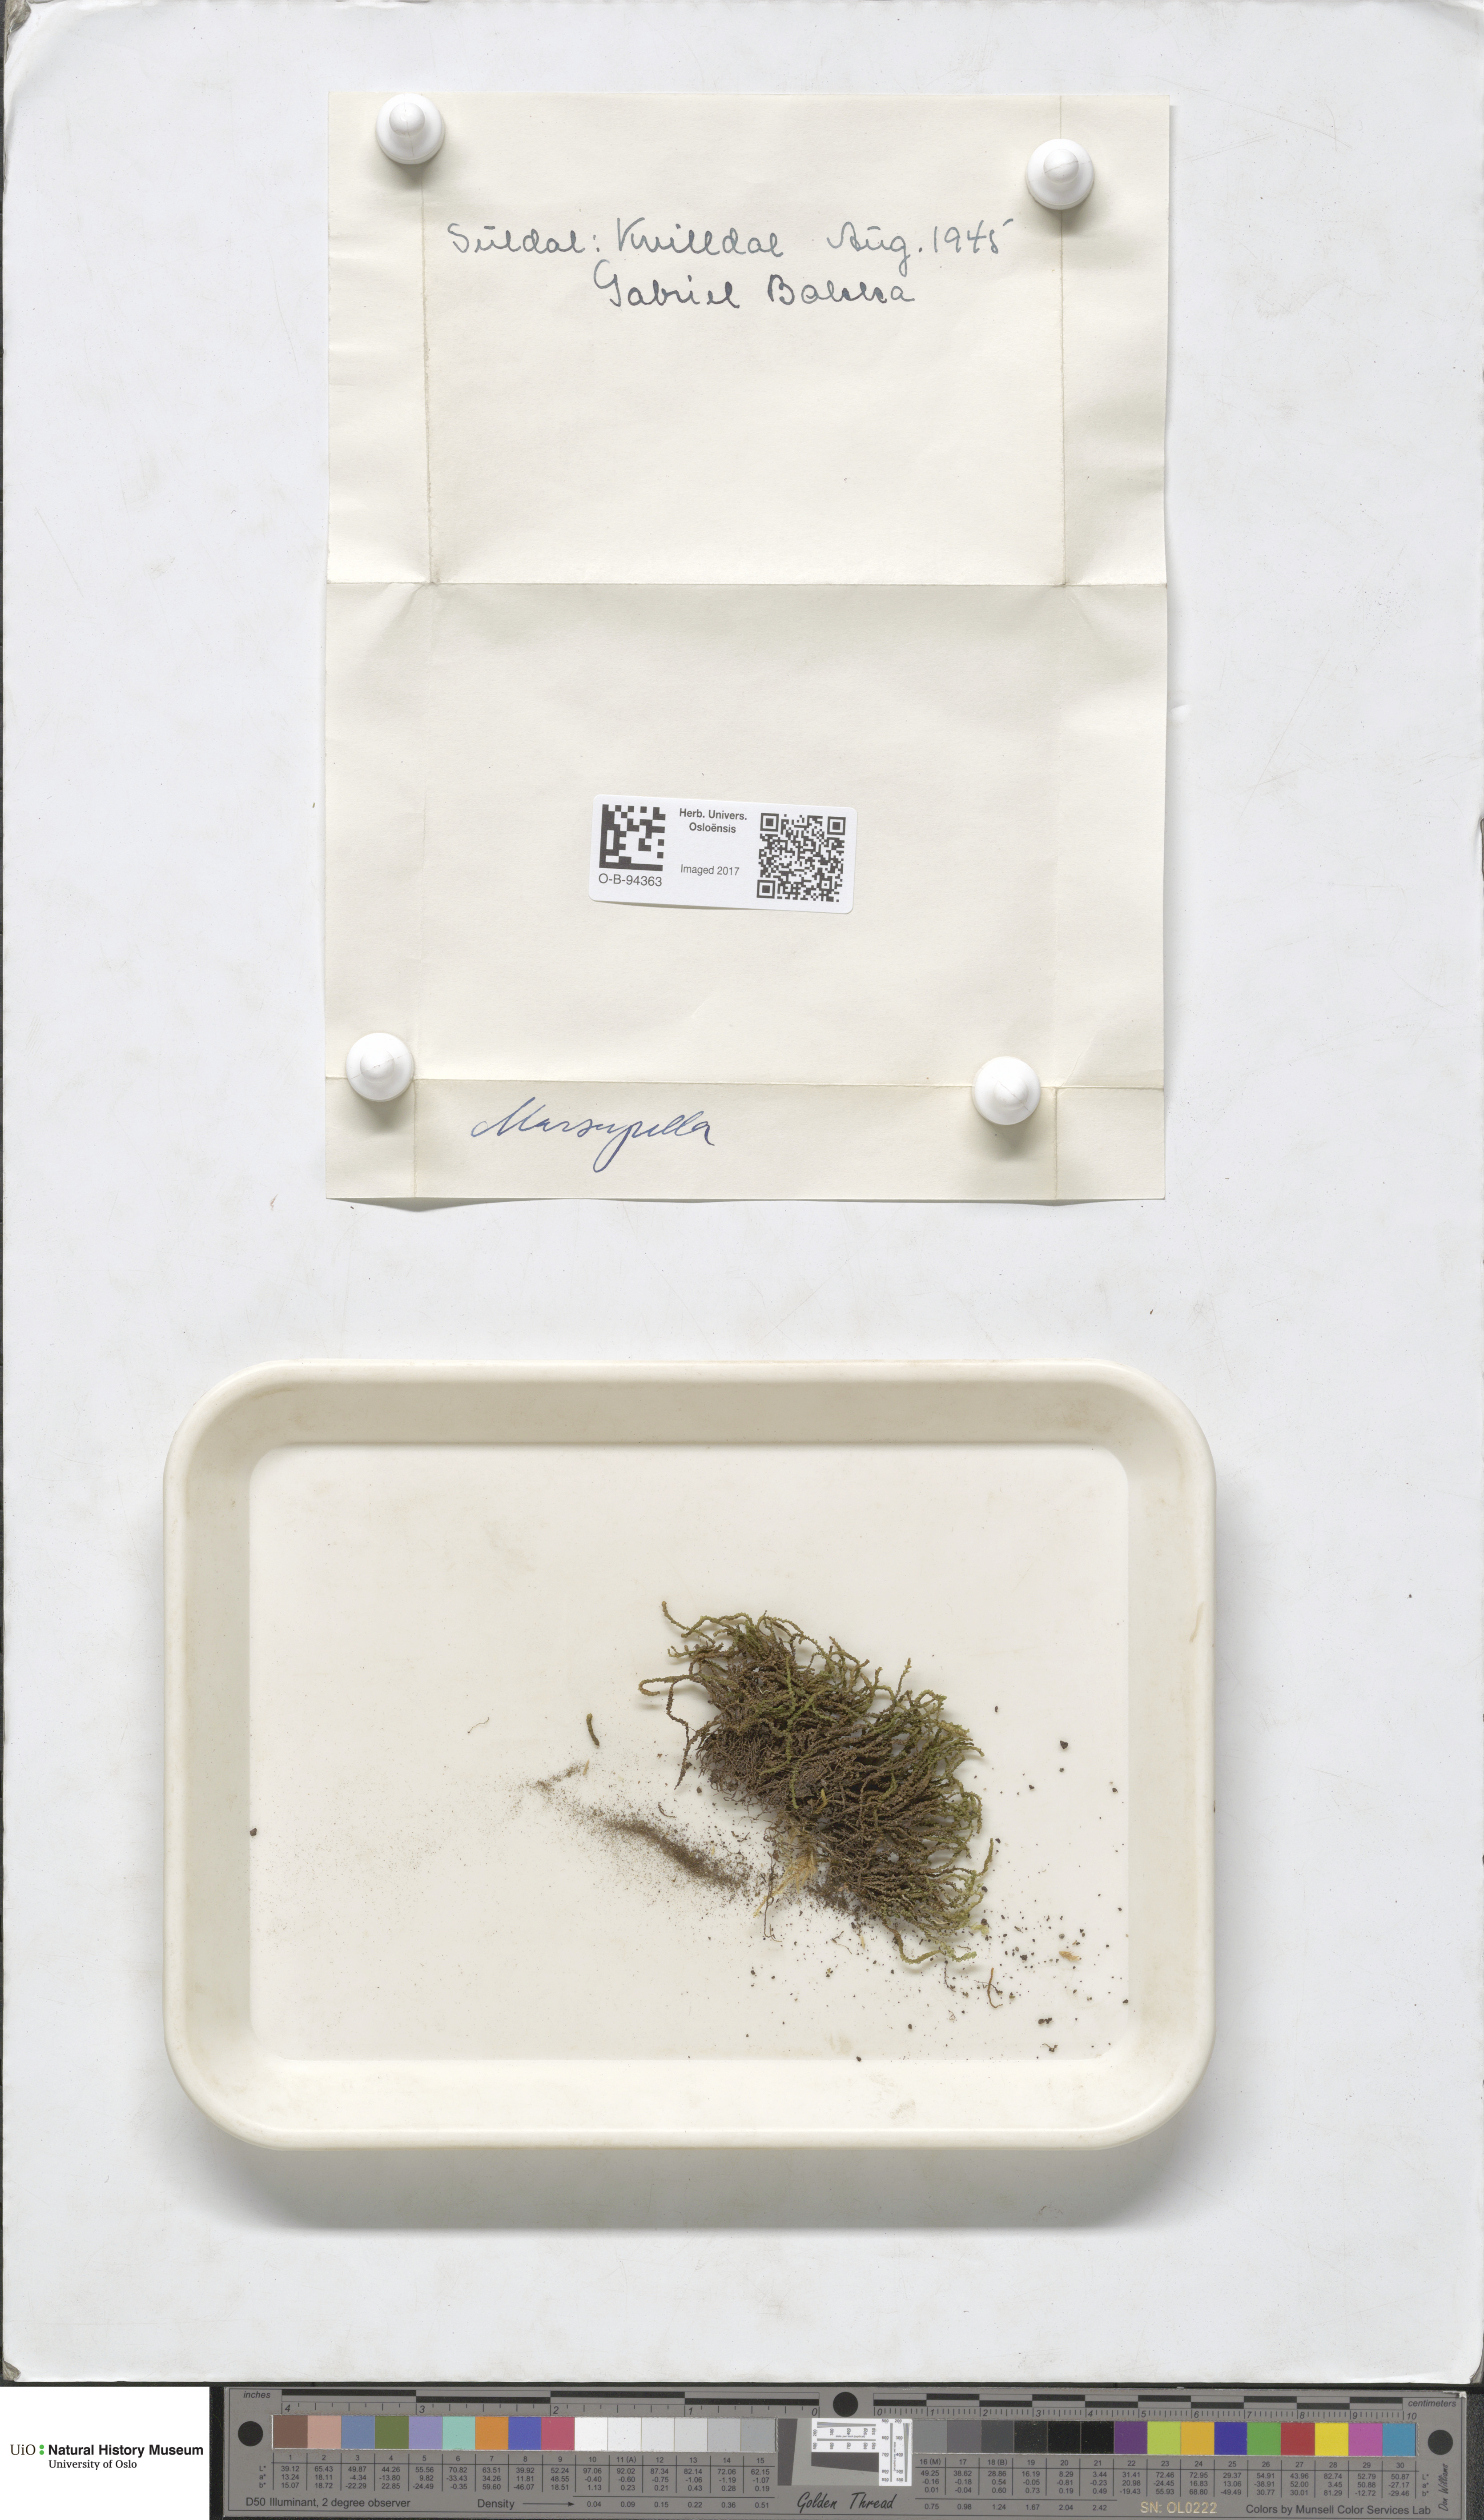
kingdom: Plantae
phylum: Marchantiophyta
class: Jungermanniopsida
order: Jungermanniales
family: Gymnomitriaceae
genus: Marsupella
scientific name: Marsupella
